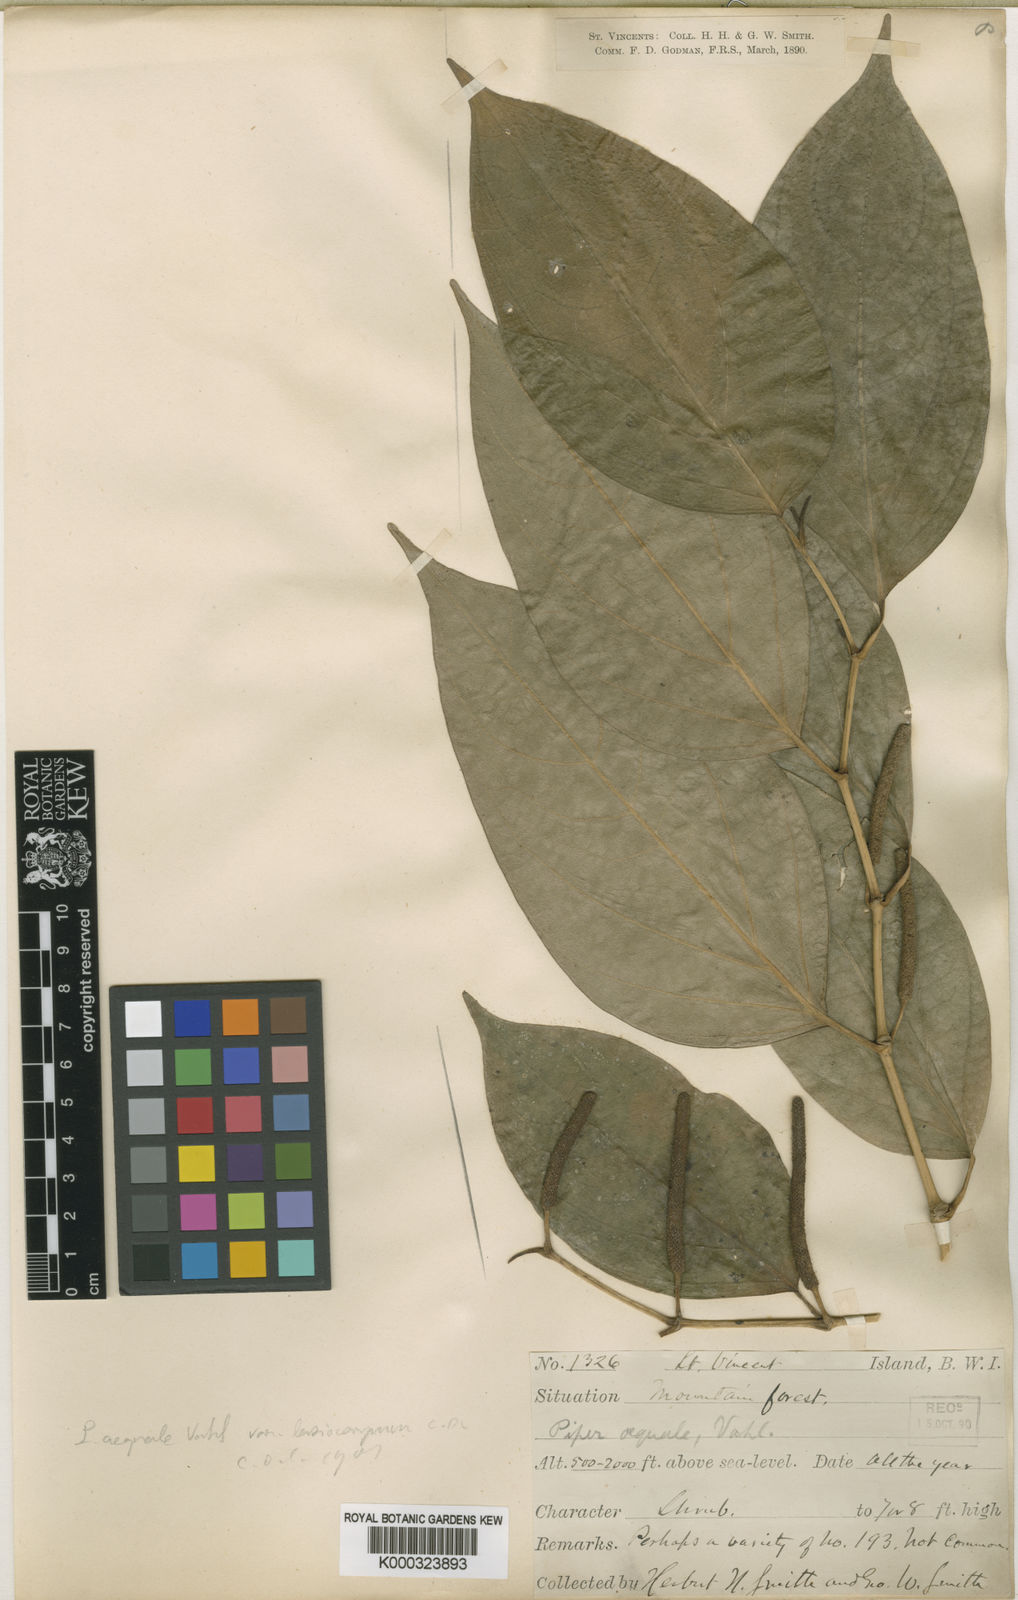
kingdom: Plantae
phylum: Tracheophyta
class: Magnoliopsida
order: Piperales
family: Piperaceae
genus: Piper
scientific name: Piper aequale
